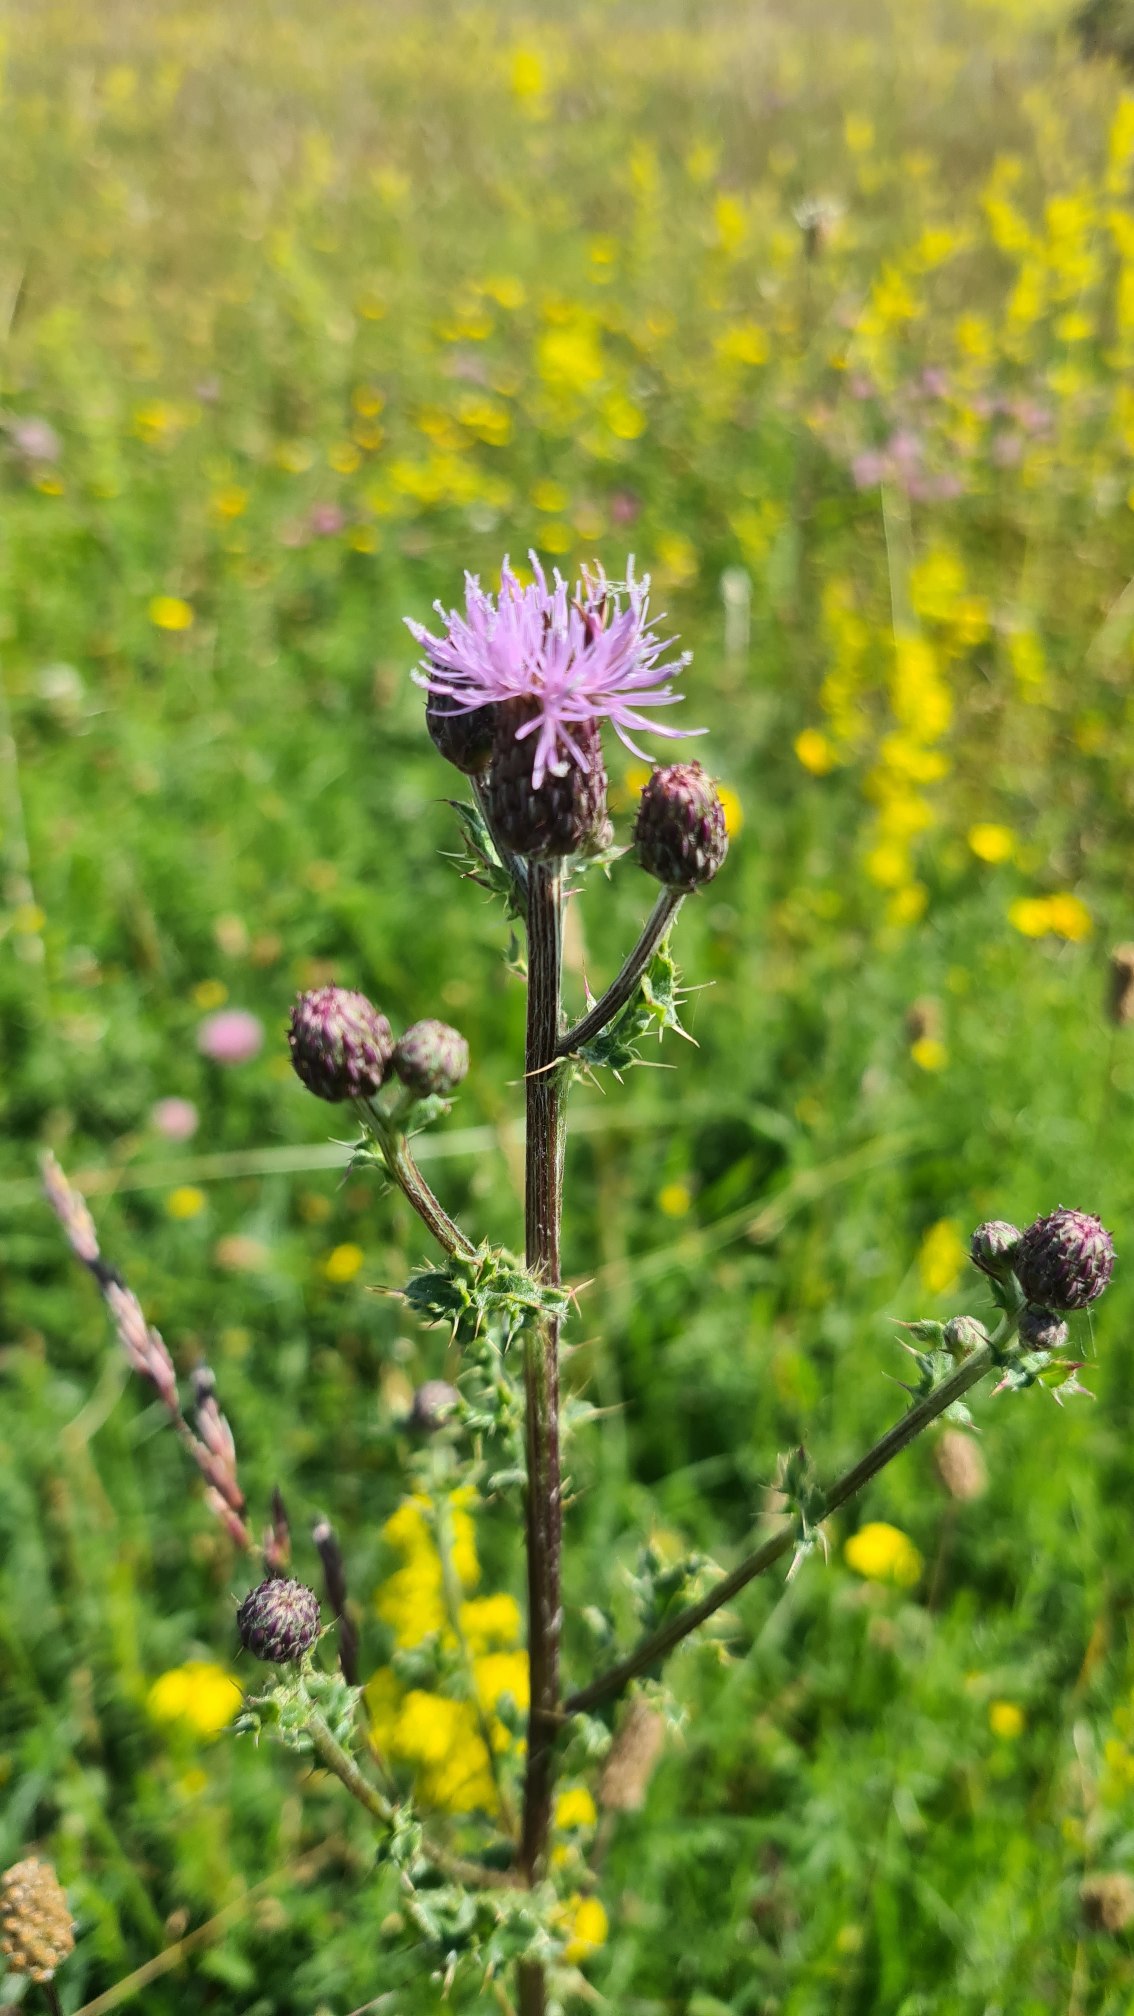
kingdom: Plantae
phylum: Tracheophyta
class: Magnoliopsida
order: Asterales
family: Asteraceae
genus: Cirsium
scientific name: Cirsium arvense
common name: Ager-tidsel
